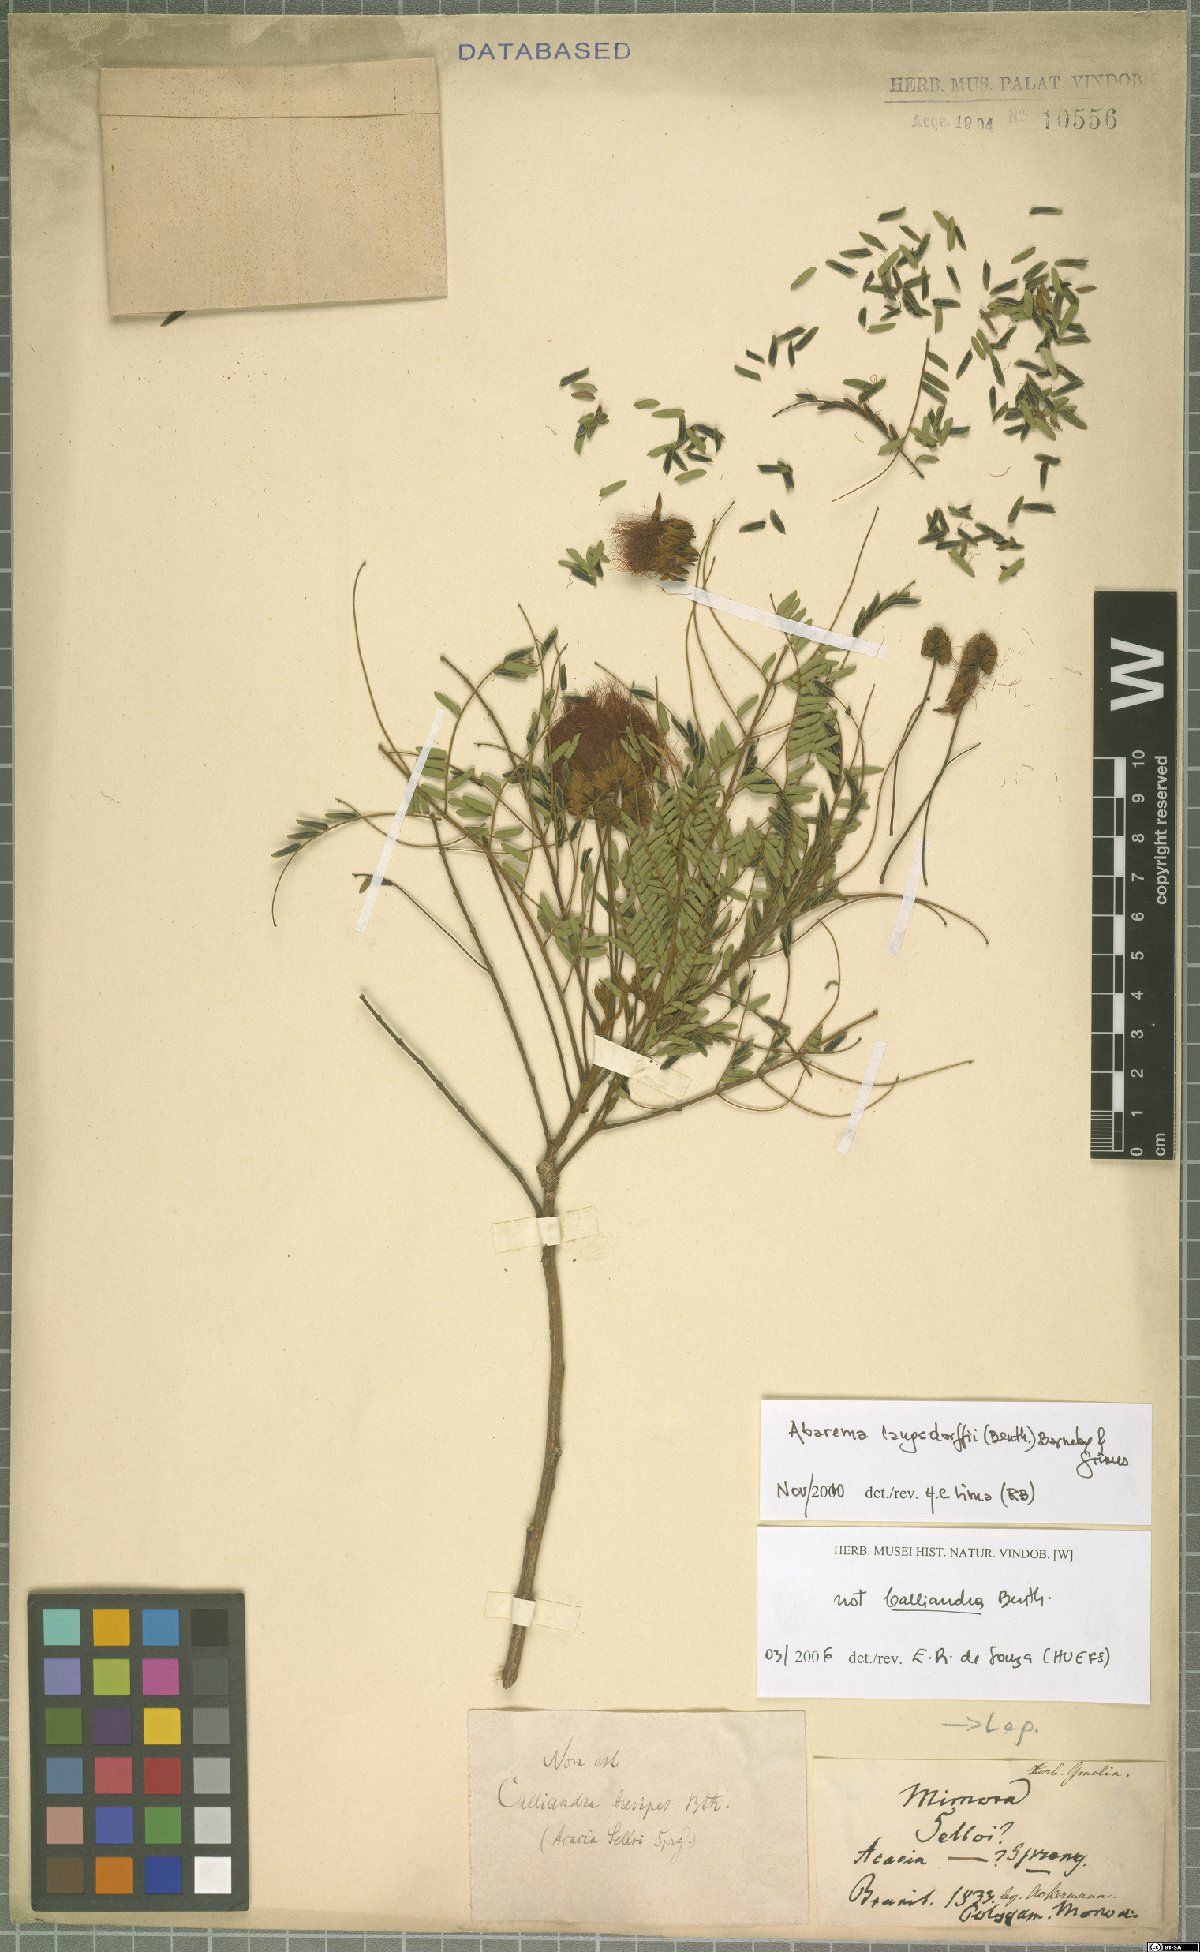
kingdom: Plantae
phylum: Tracheophyta
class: Magnoliopsida
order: Fabales
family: Fabaceae
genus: Jupunba
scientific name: Jupunba langsdorffii
